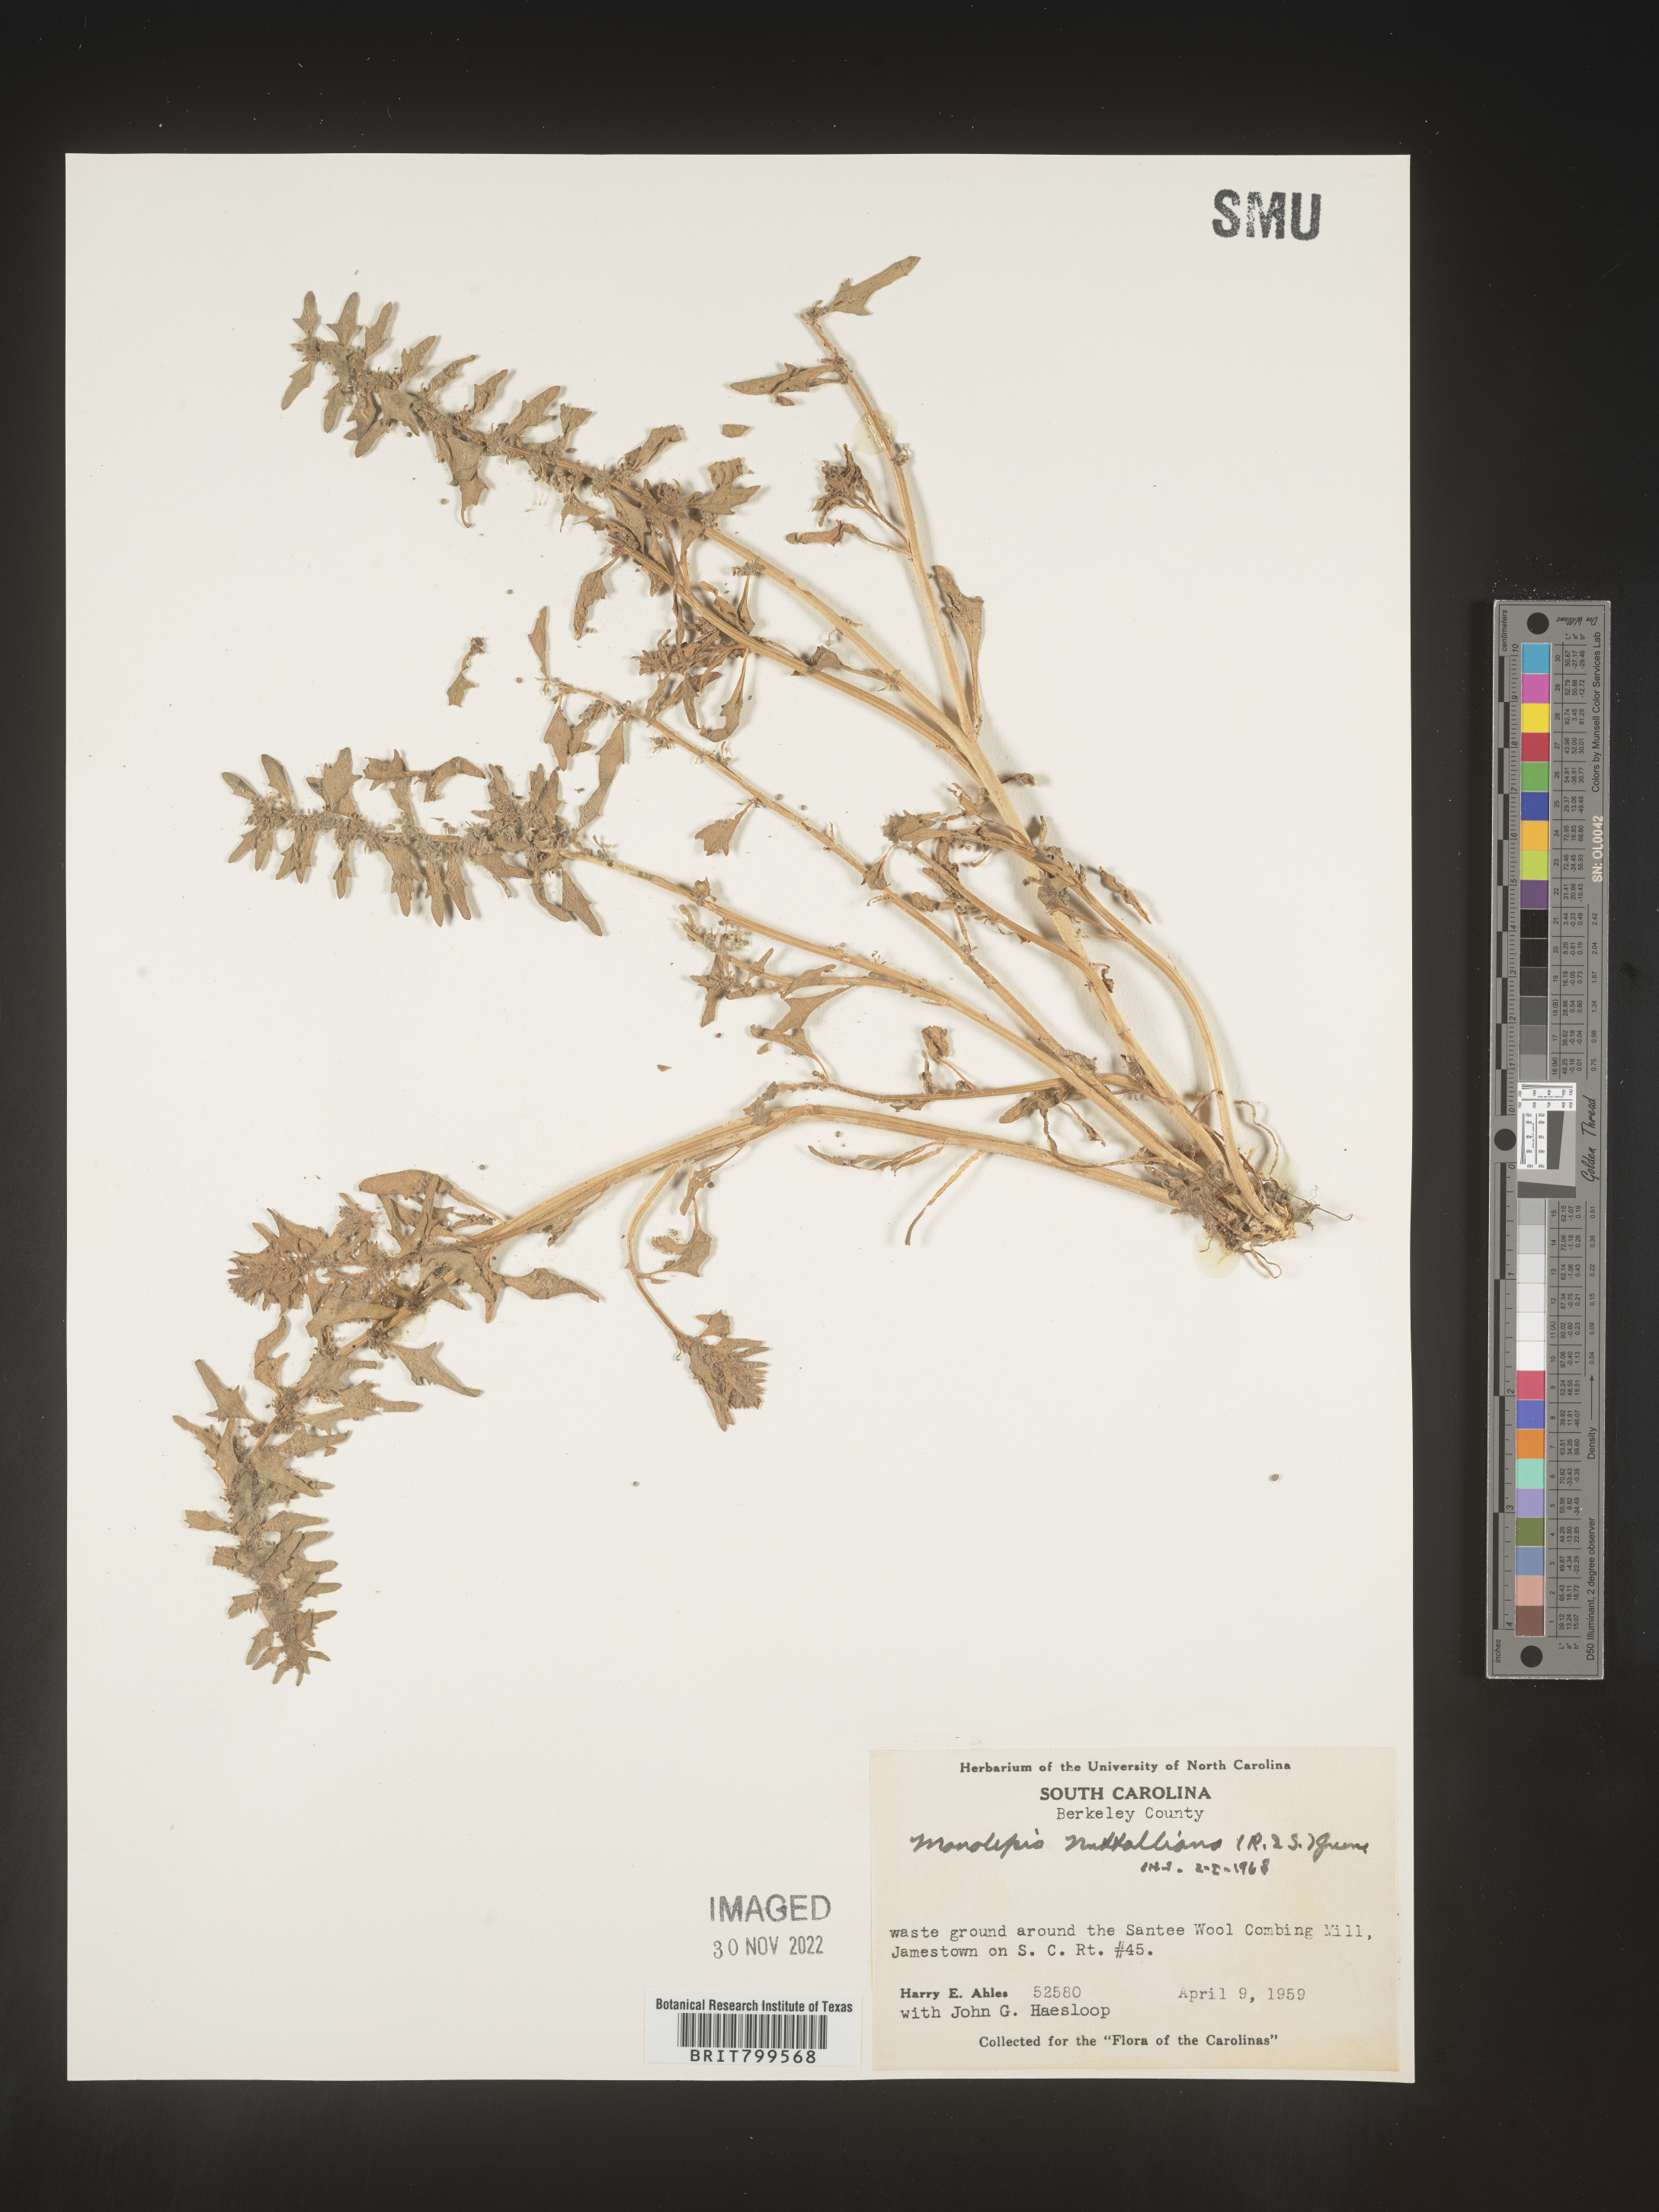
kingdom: Plantae
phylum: Tracheophyta
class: Magnoliopsida
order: Caryophyllales
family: Amaranthaceae
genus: Blitum
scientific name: Blitum
